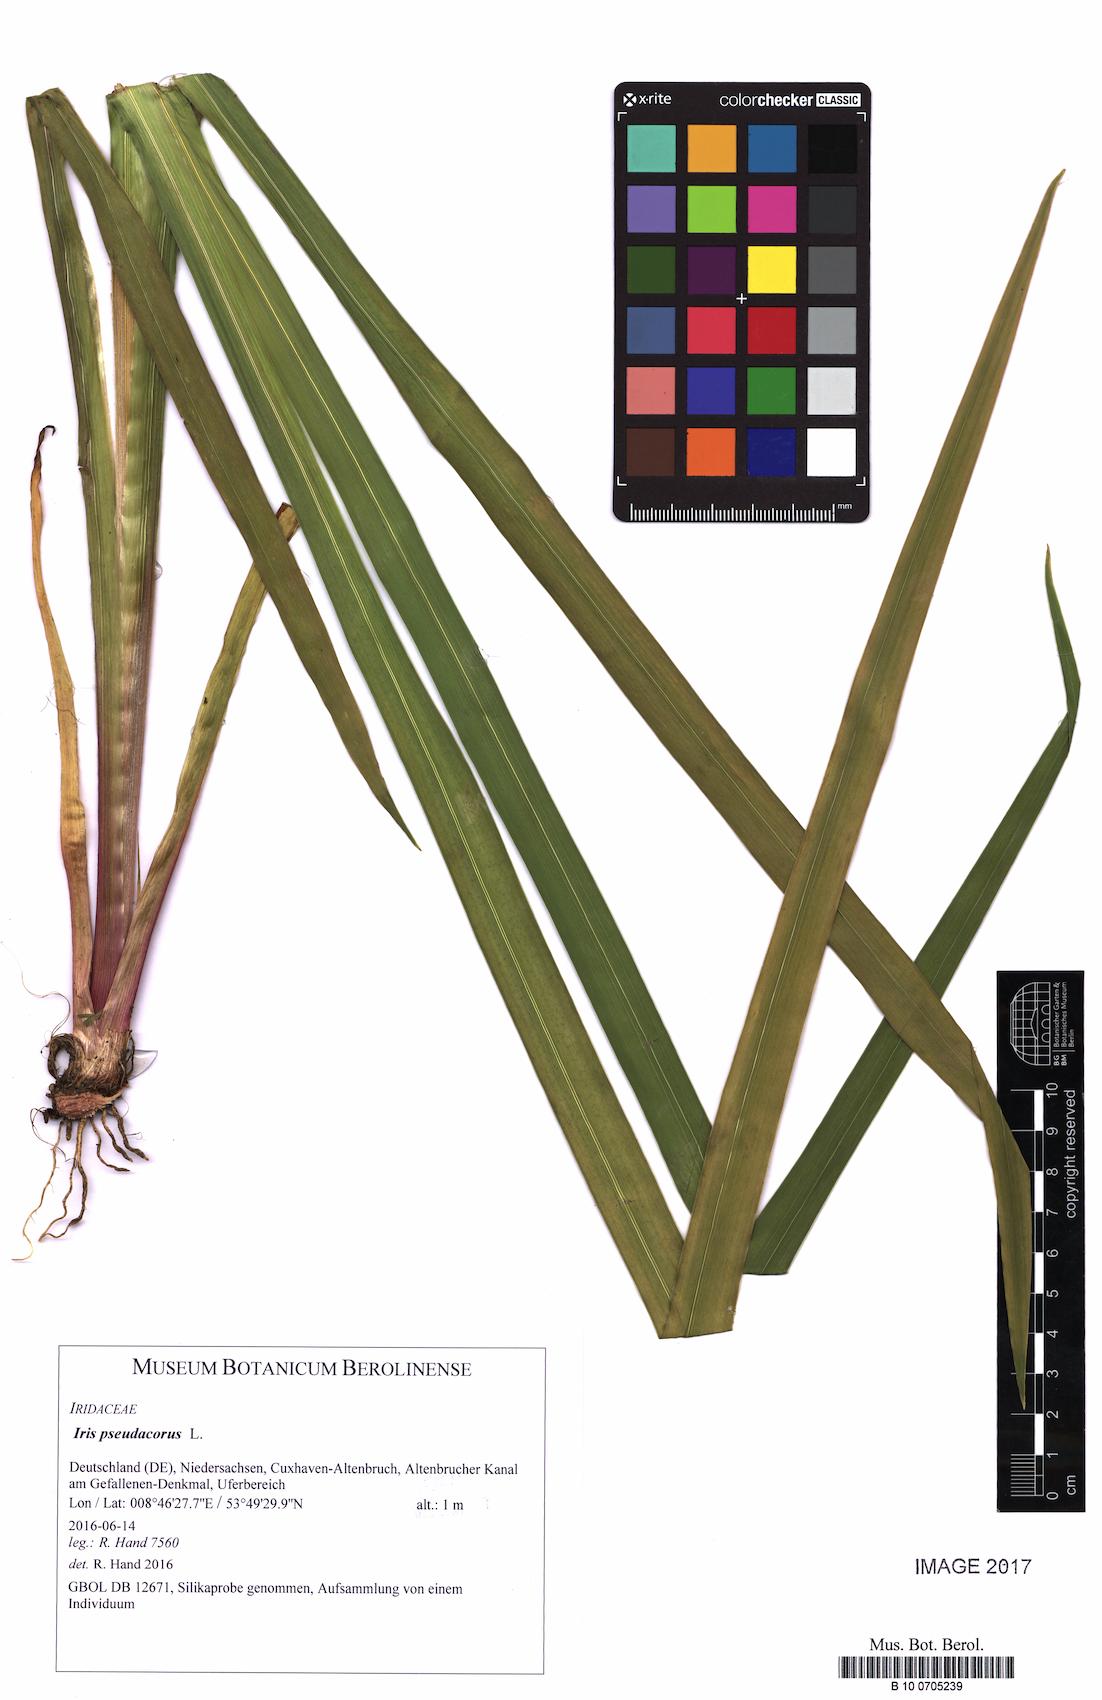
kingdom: Plantae
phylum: Tracheophyta
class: Liliopsida
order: Asparagales
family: Iridaceae
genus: Iris
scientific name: Iris pseudacorus
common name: Yellow flag
